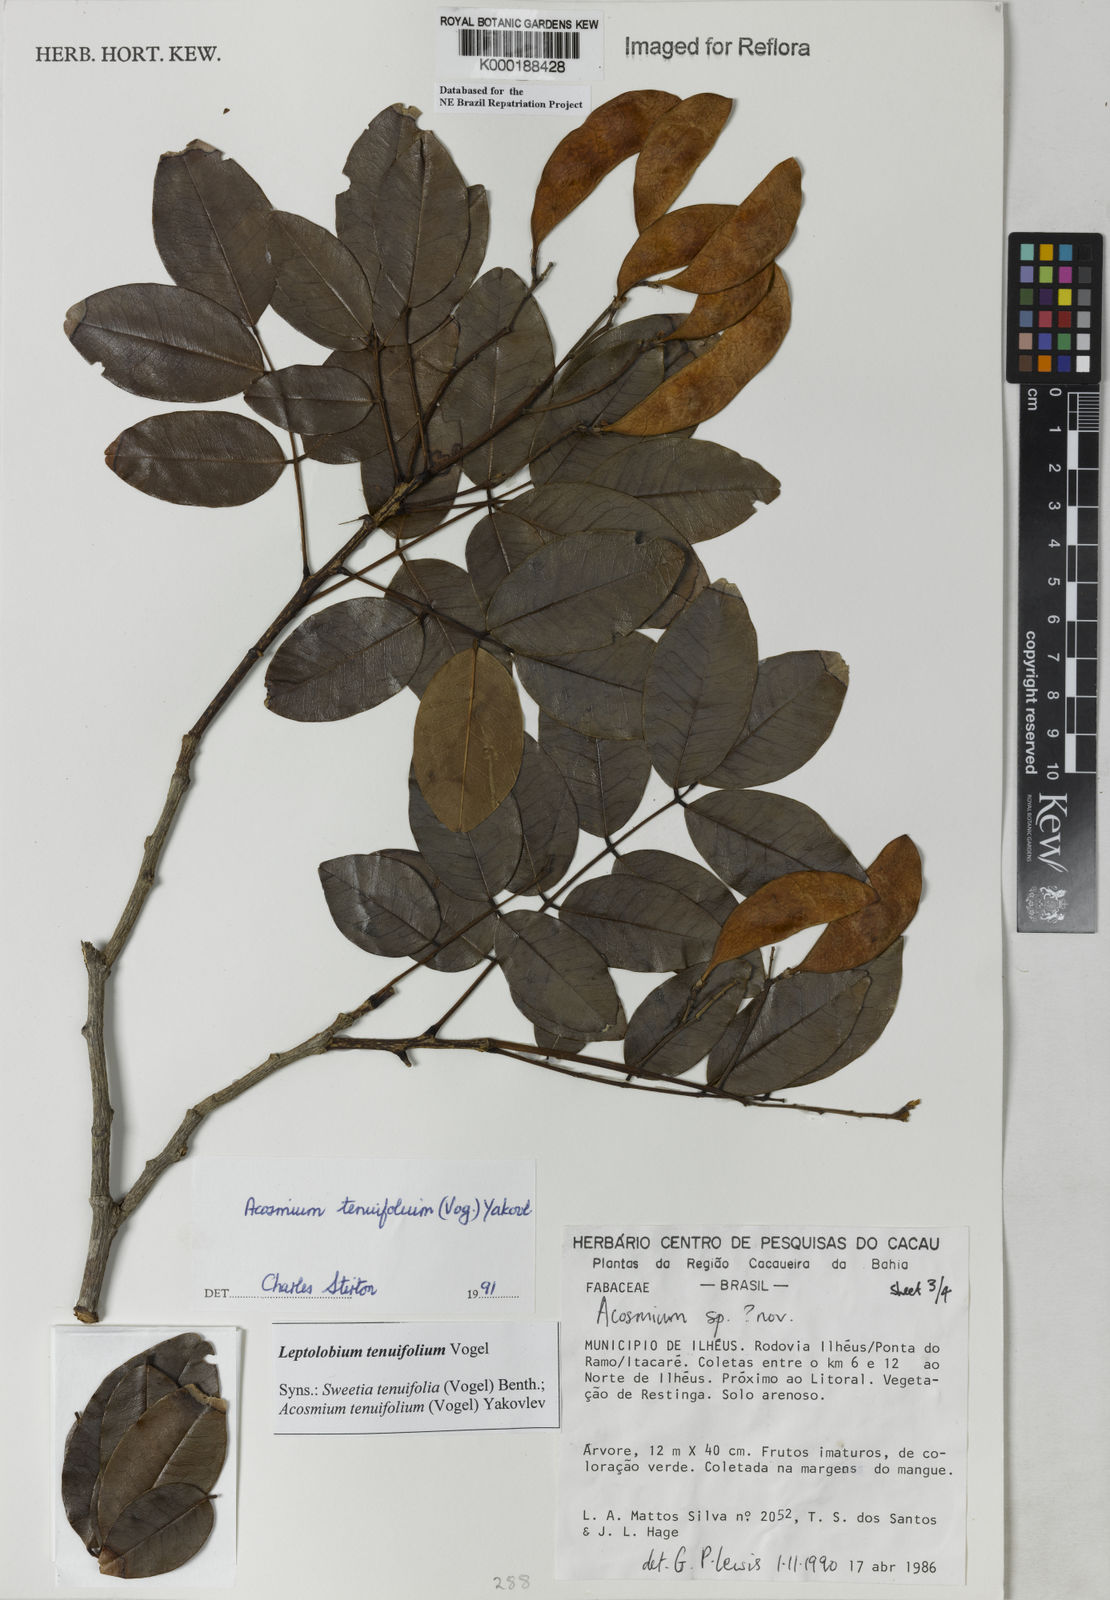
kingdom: Plantae
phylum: Tracheophyta
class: Magnoliopsida
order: Fabales
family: Fabaceae
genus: Leptolobium
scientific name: Leptolobium tenuifolium
